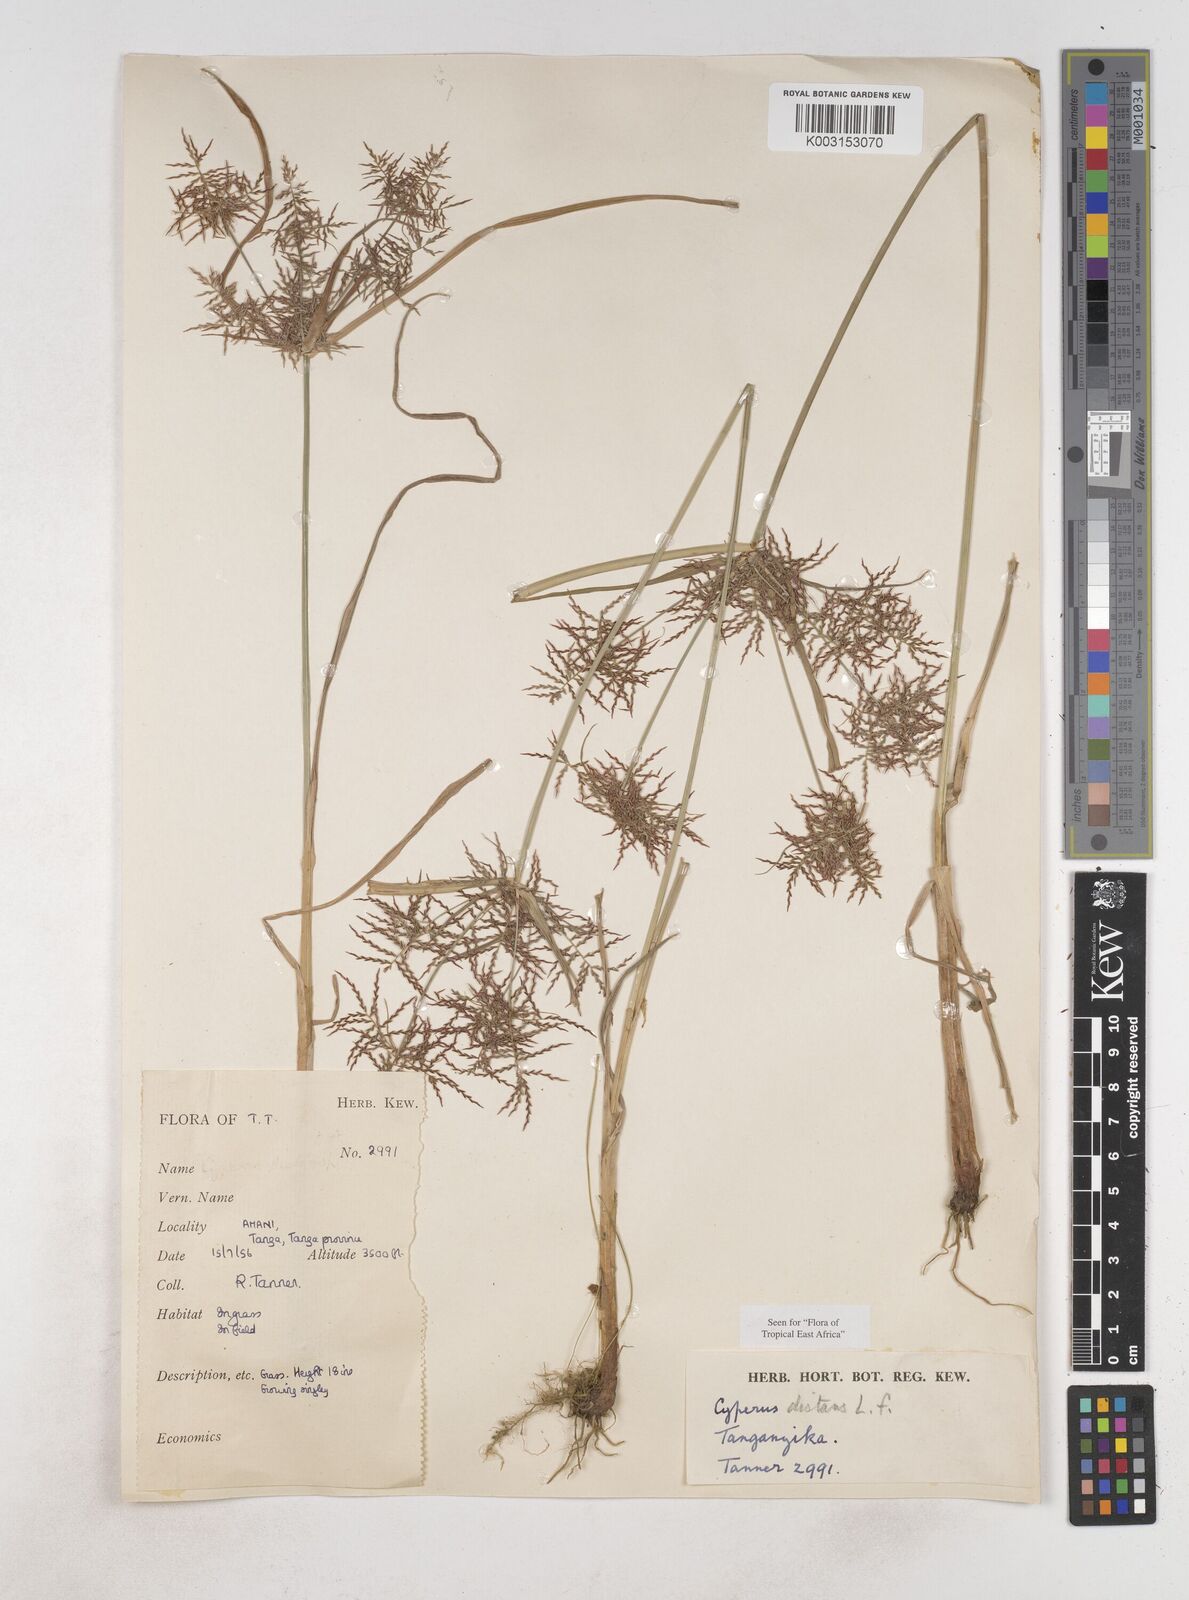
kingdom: Plantae
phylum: Tracheophyta
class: Liliopsida
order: Poales
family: Cyperaceae
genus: Cyperus
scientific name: Cyperus distans
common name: Slender cyperus
